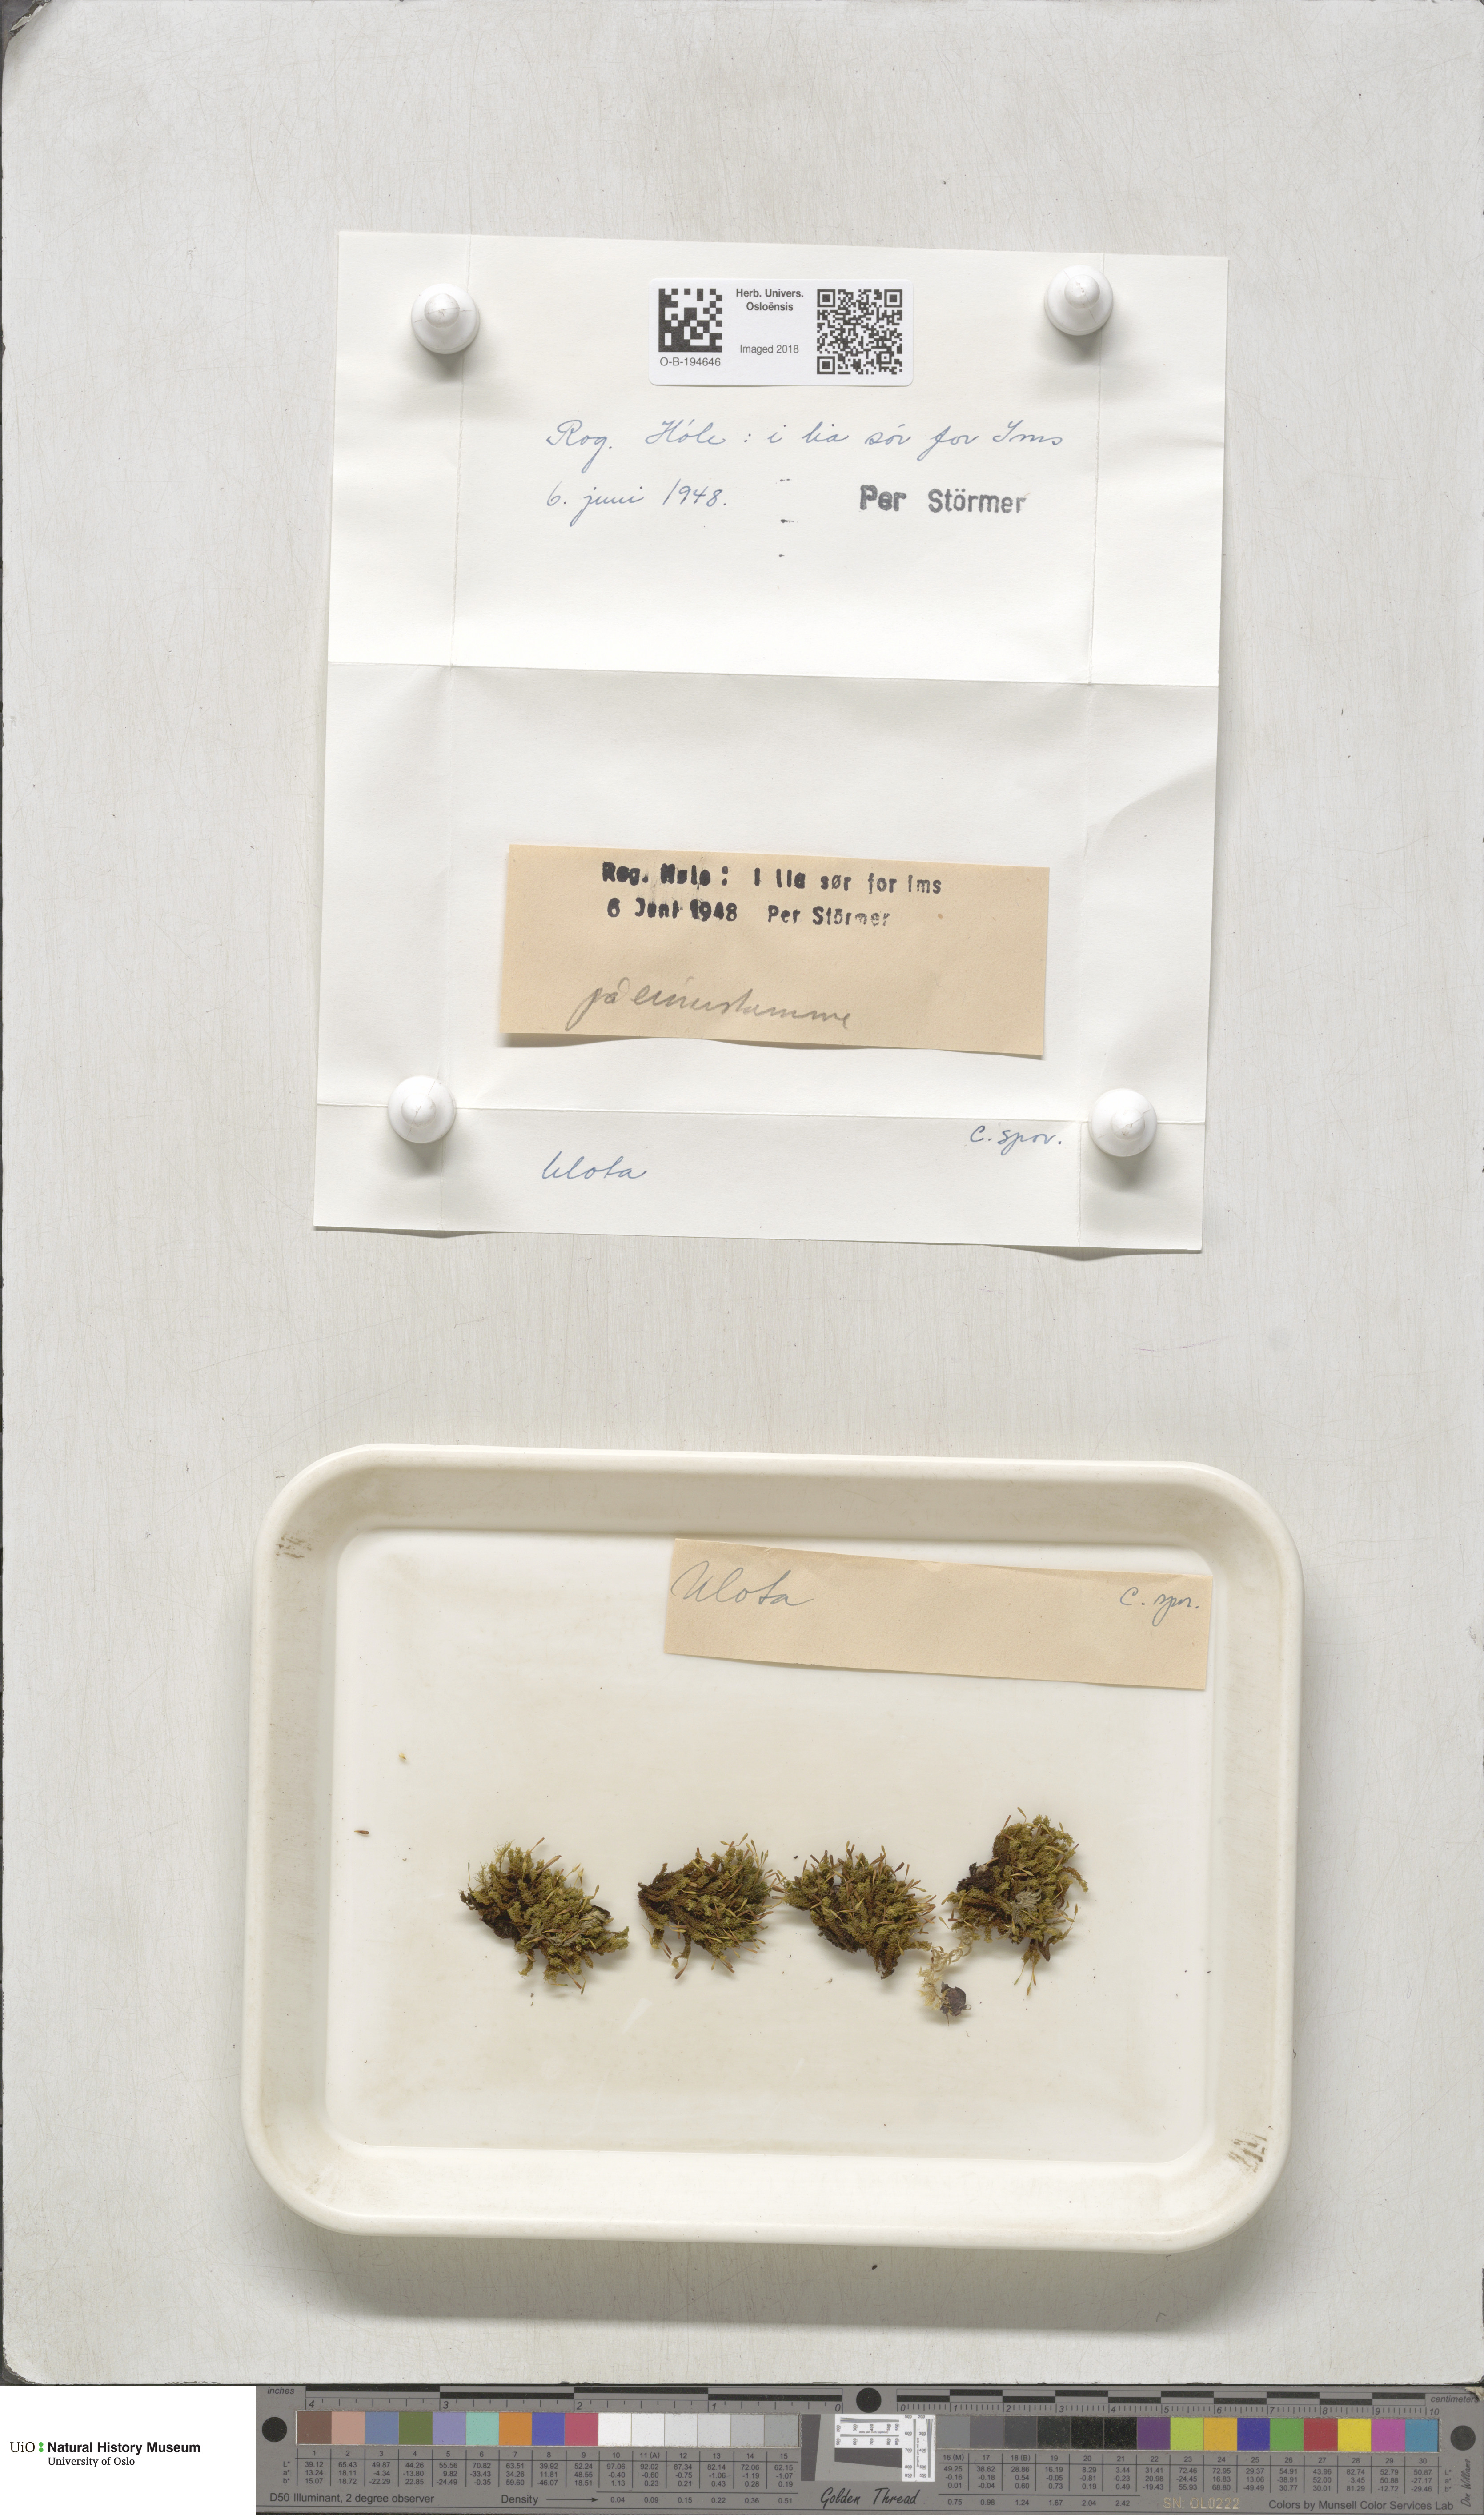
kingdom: Plantae
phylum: Bryophyta
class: Bryopsida
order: Orthotrichales
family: Orthotrichaceae
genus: Ulota
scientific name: Ulota
